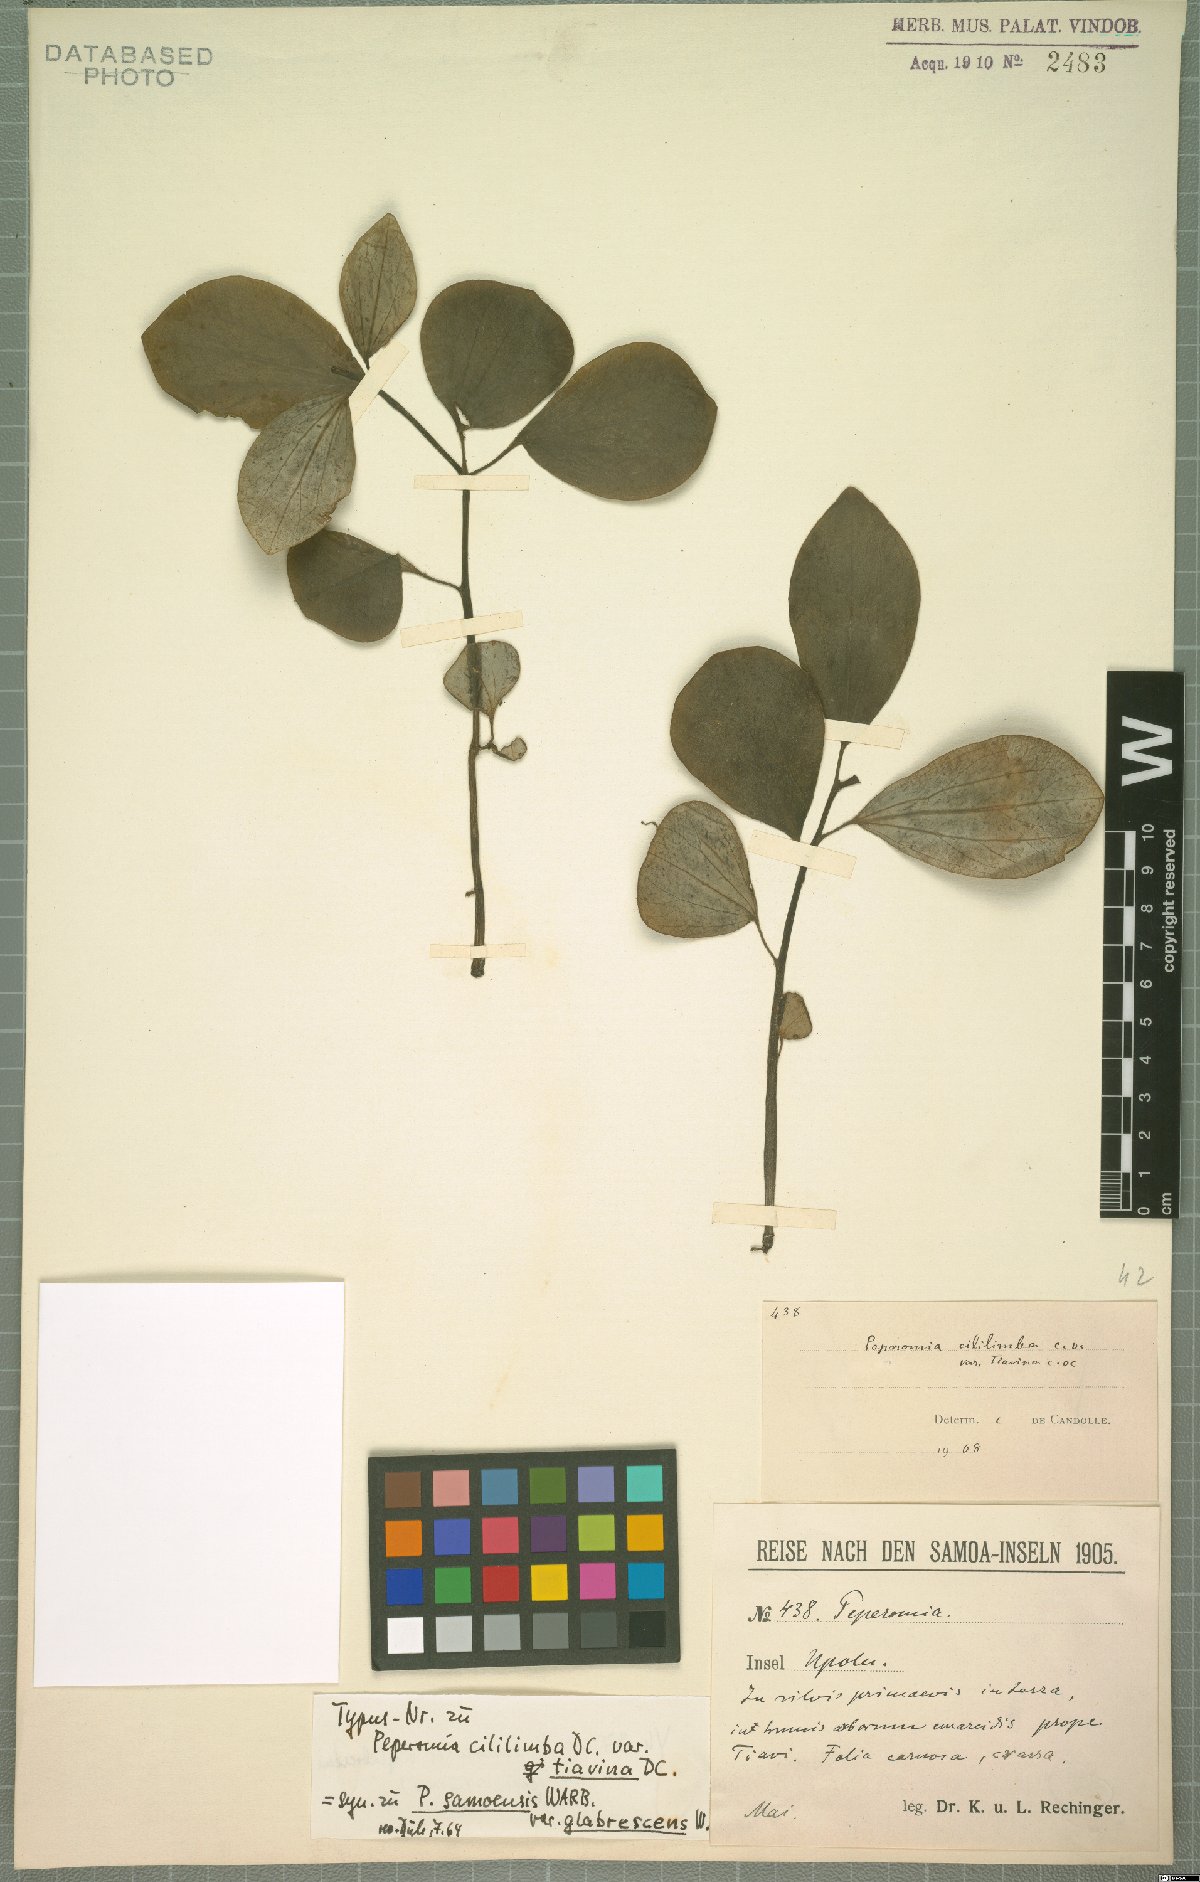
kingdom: Plantae
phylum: Tracheophyta
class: Magnoliopsida
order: Piperales
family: Piperaceae
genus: Peperomia
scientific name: Peperomia samoensis
